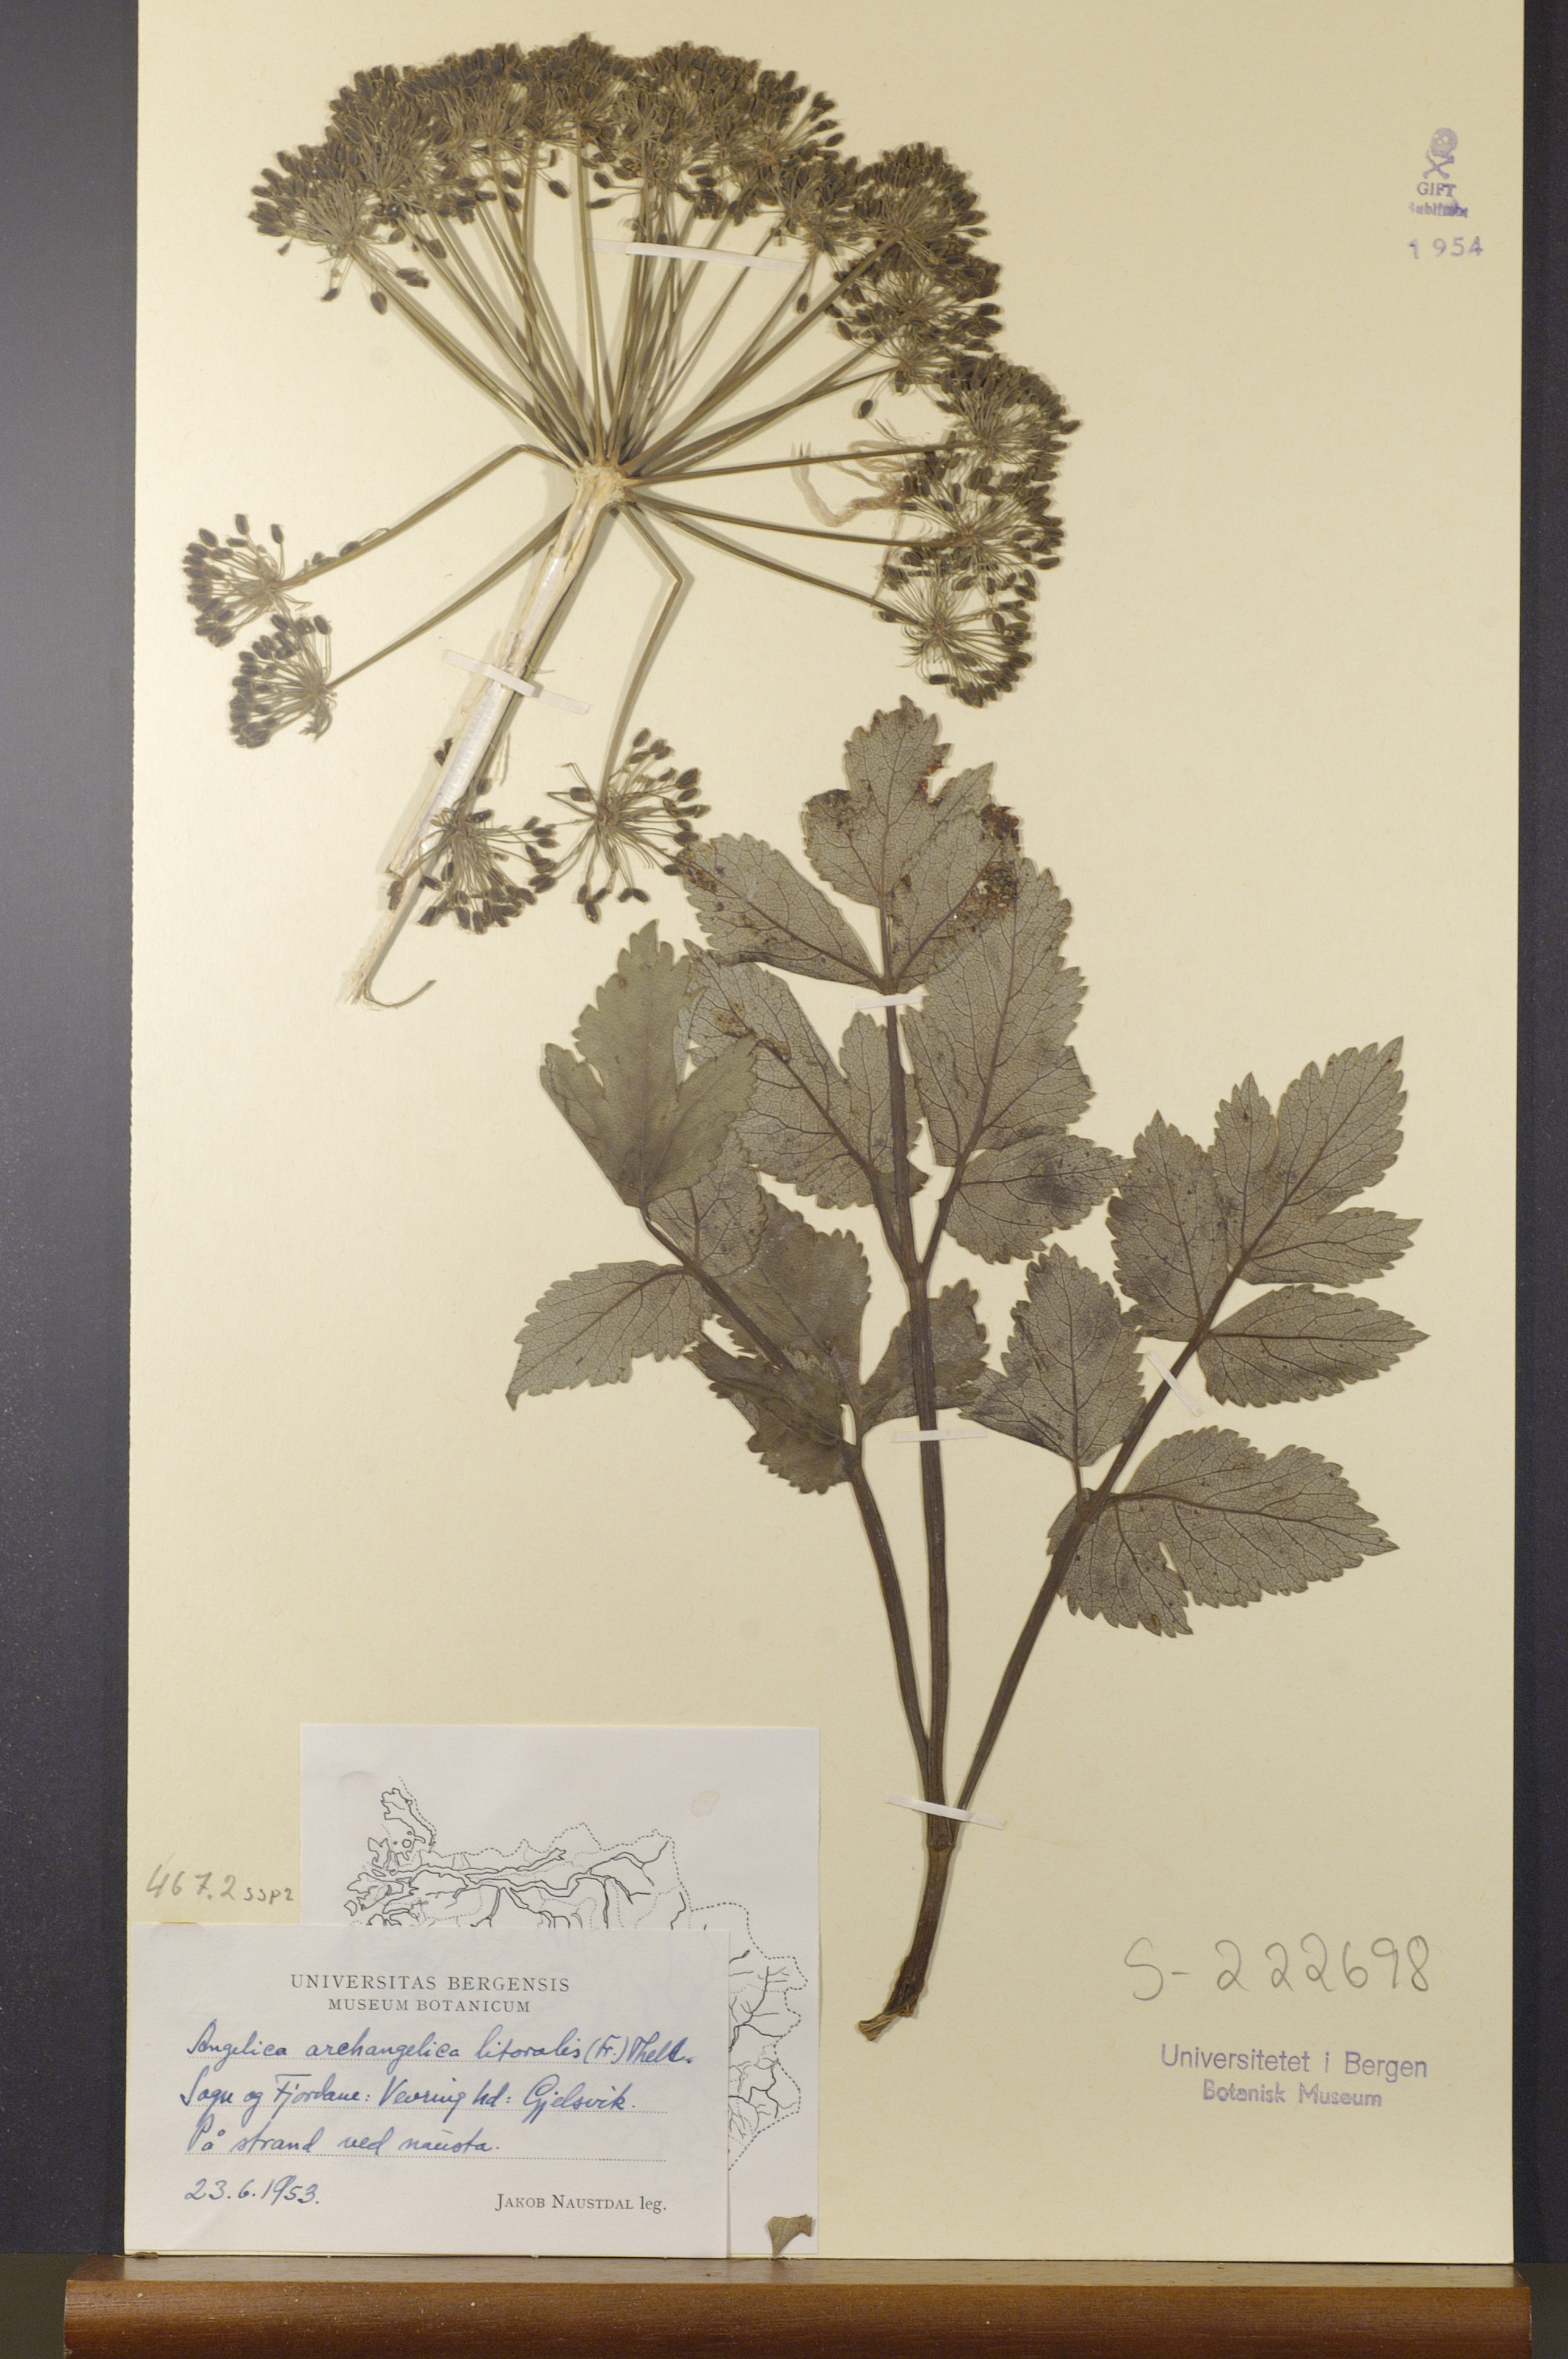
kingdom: Plantae
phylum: Tracheophyta
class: Magnoliopsida
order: Apiales
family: Apiaceae
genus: Angelica
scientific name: Angelica archangelica
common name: Garden angelica
